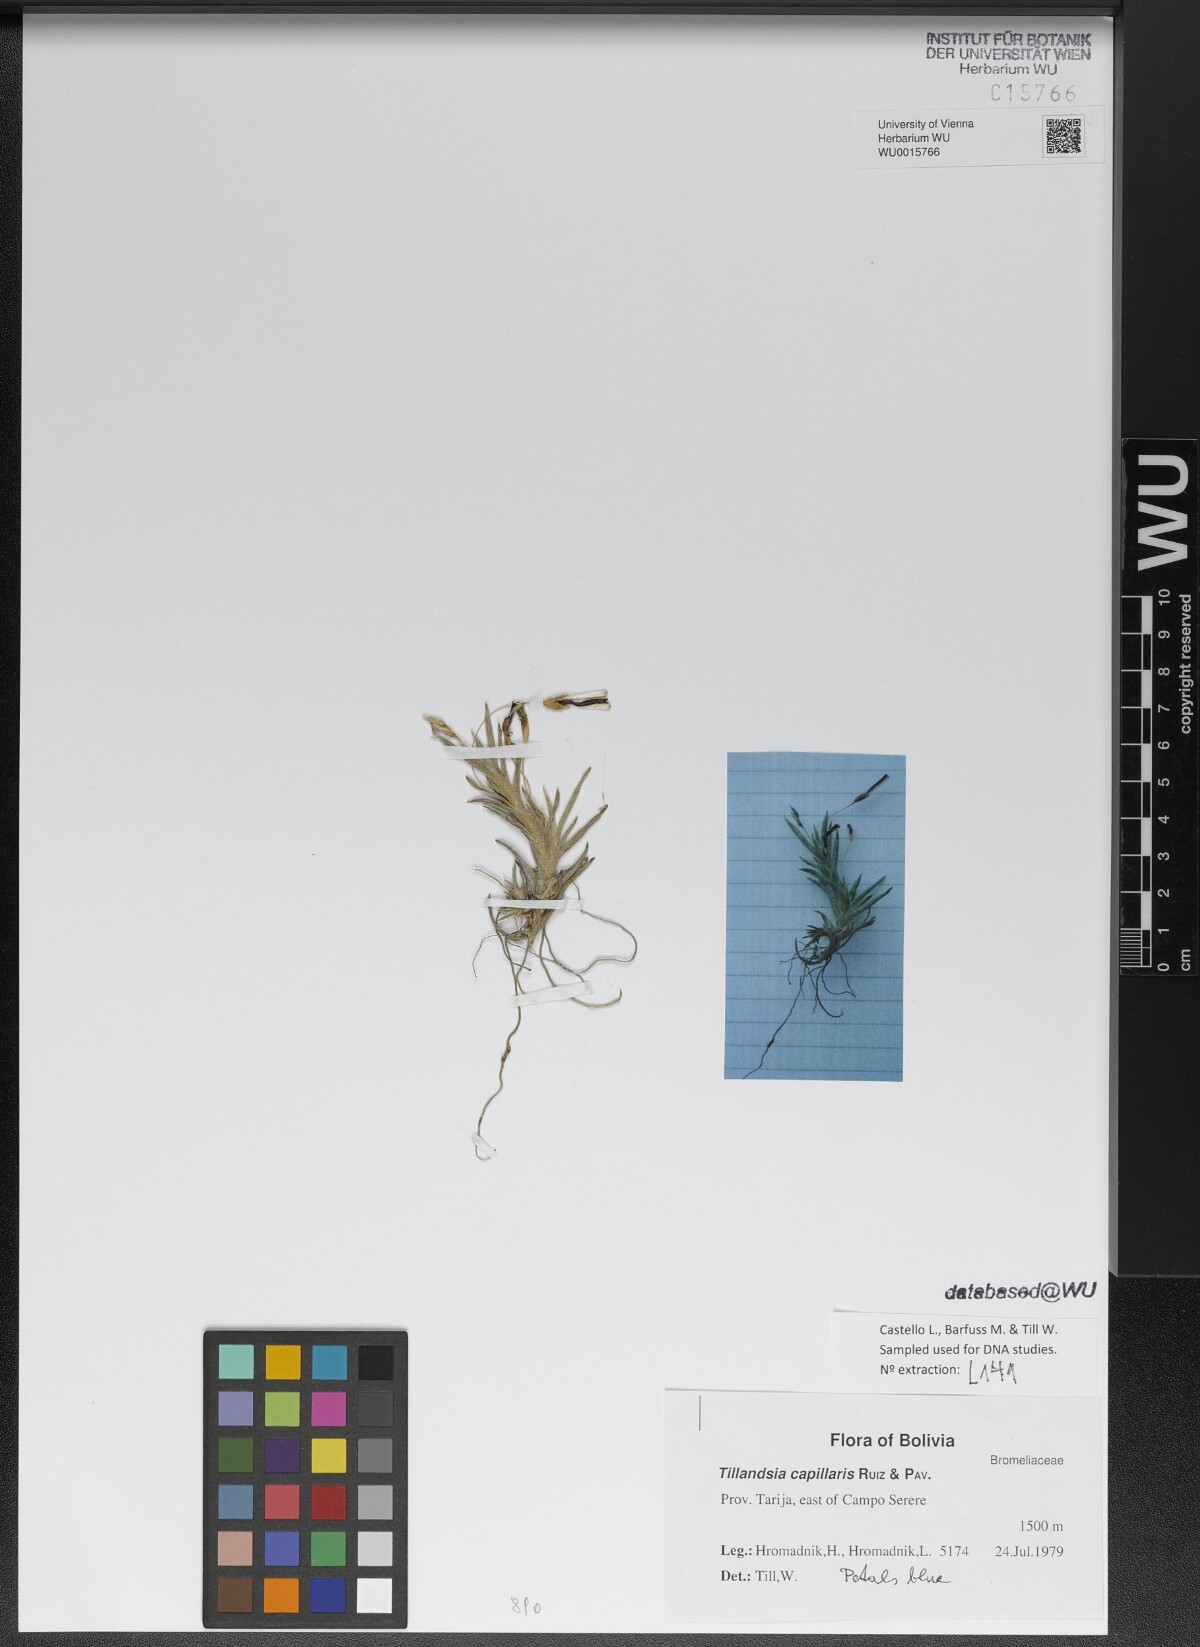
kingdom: Plantae
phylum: Tracheophyta
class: Liliopsida
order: Poales
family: Bromeliaceae
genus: Tillandsia
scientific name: Tillandsia capillaris
